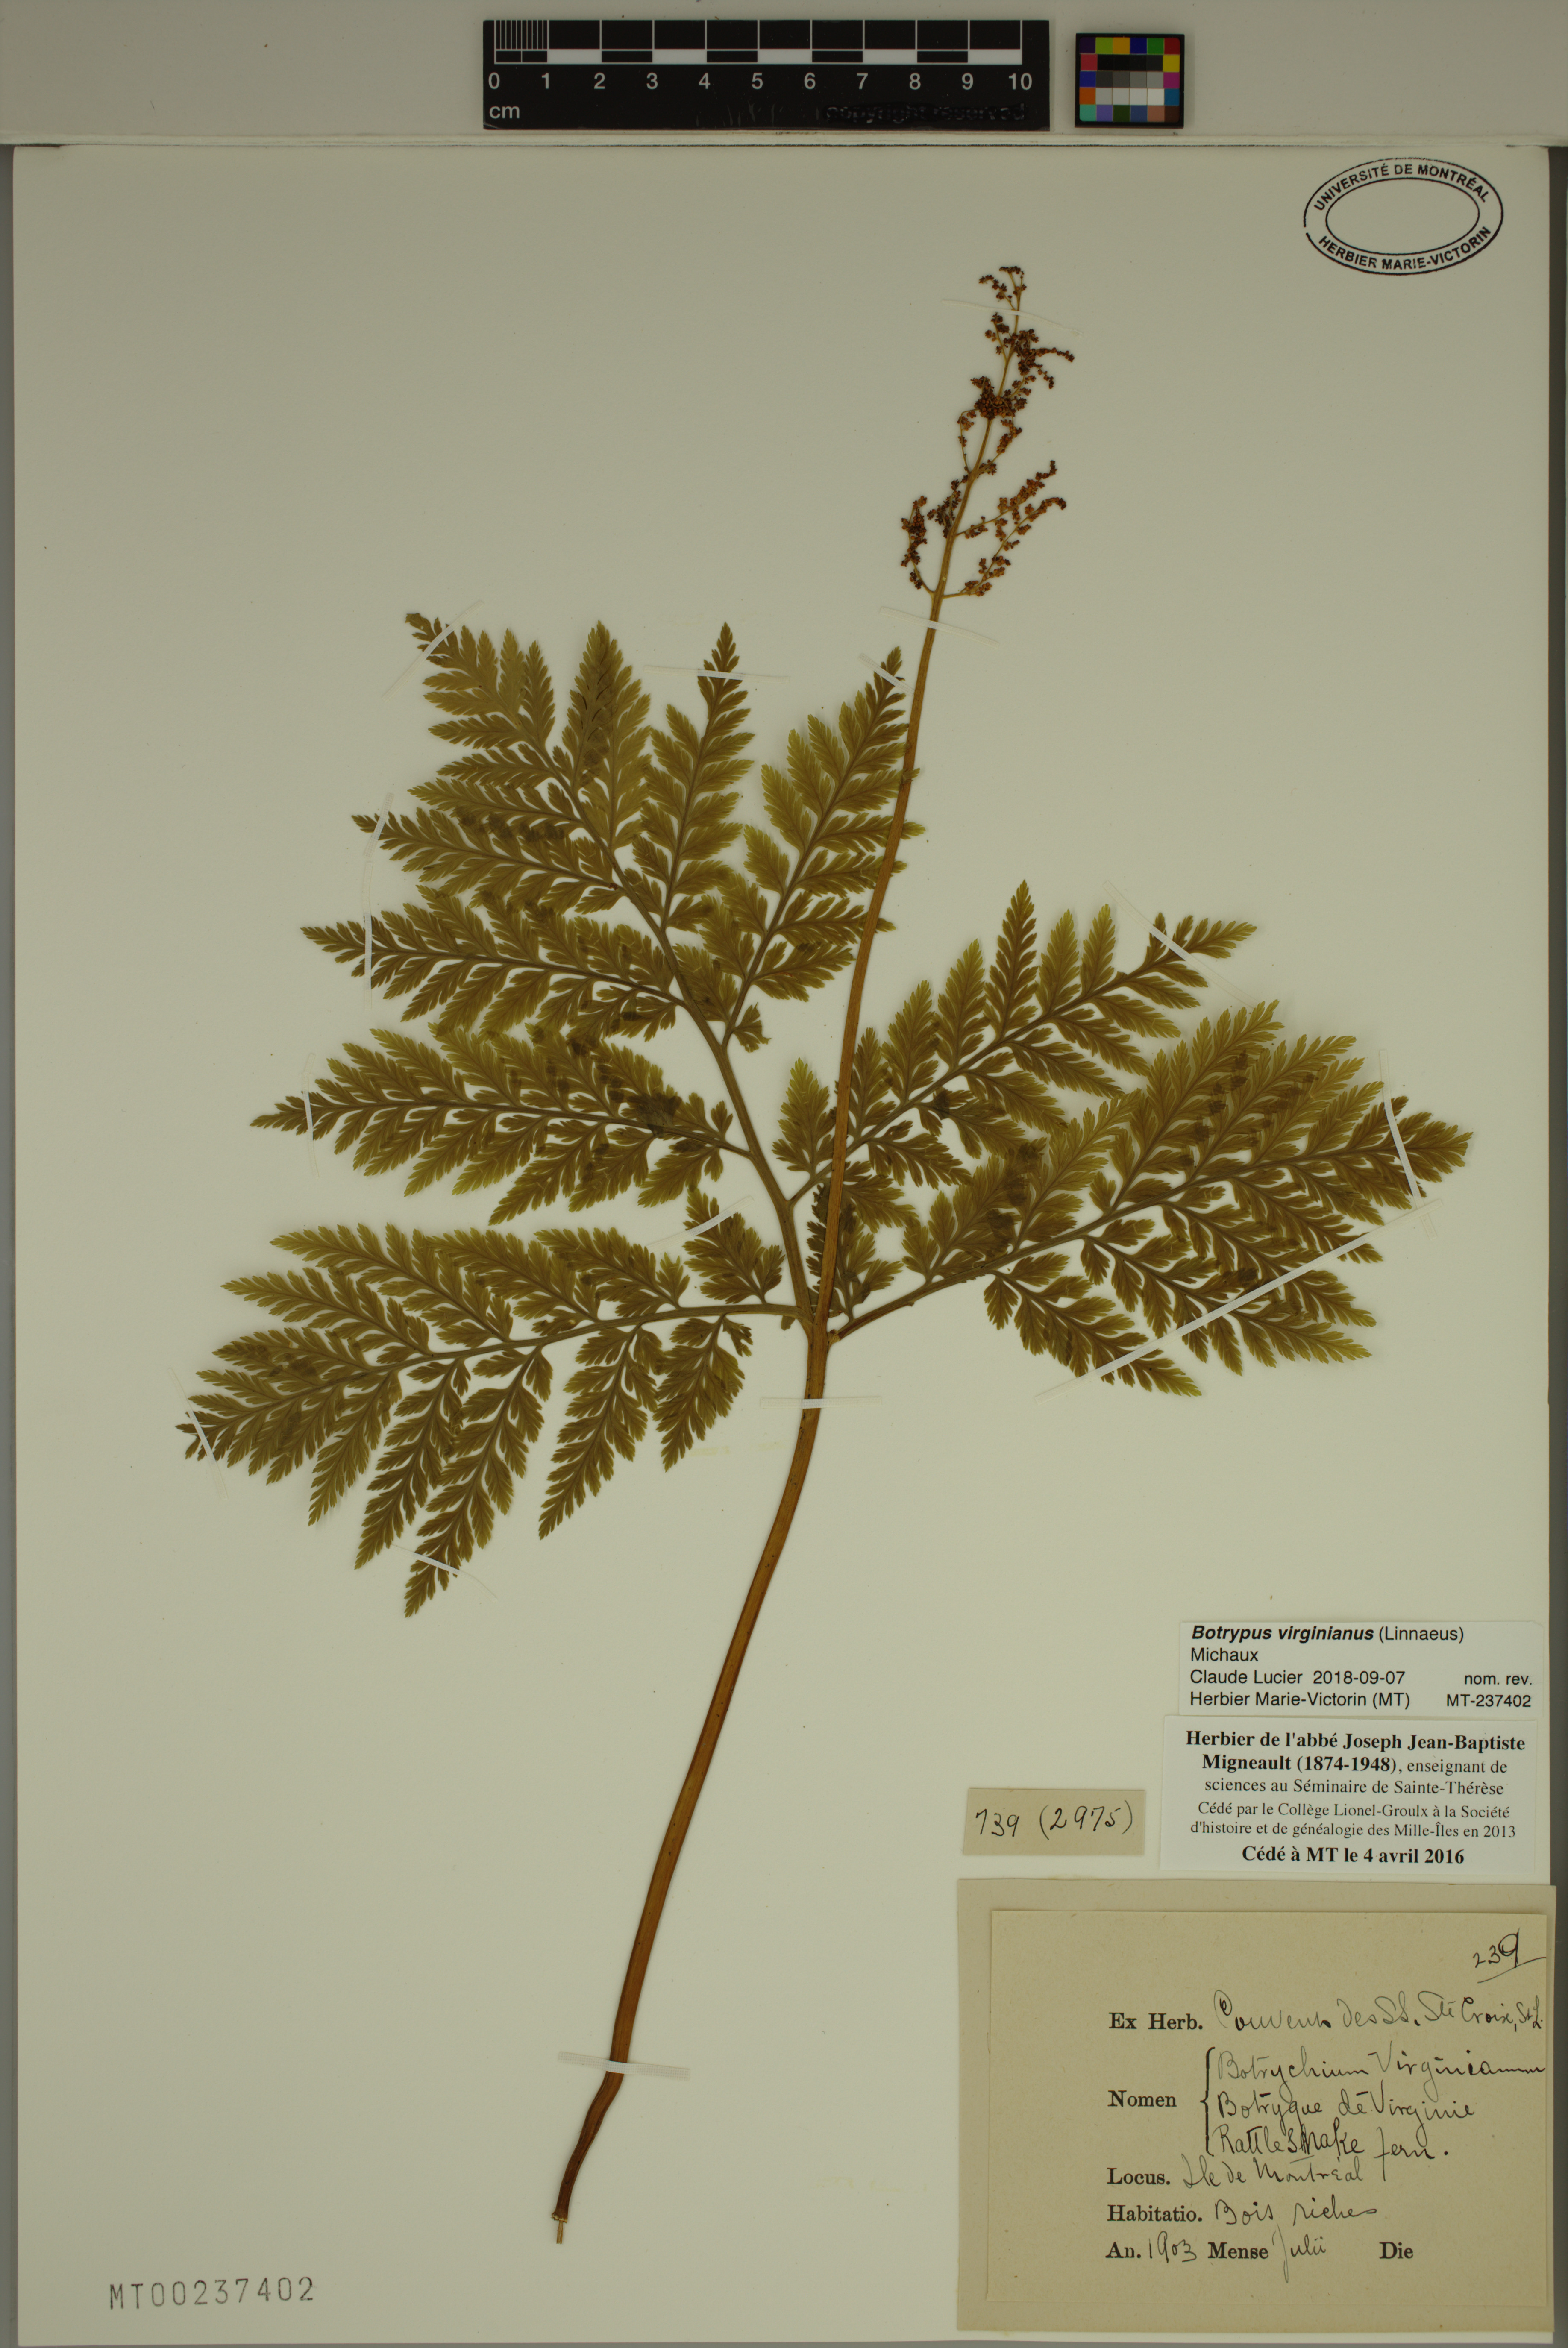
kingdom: Plantae
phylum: Tracheophyta
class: Polypodiopsida
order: Ophioglossales
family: Ophioglossaceae
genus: Botrypus
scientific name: Botrypus virginianus
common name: Common grapefern
